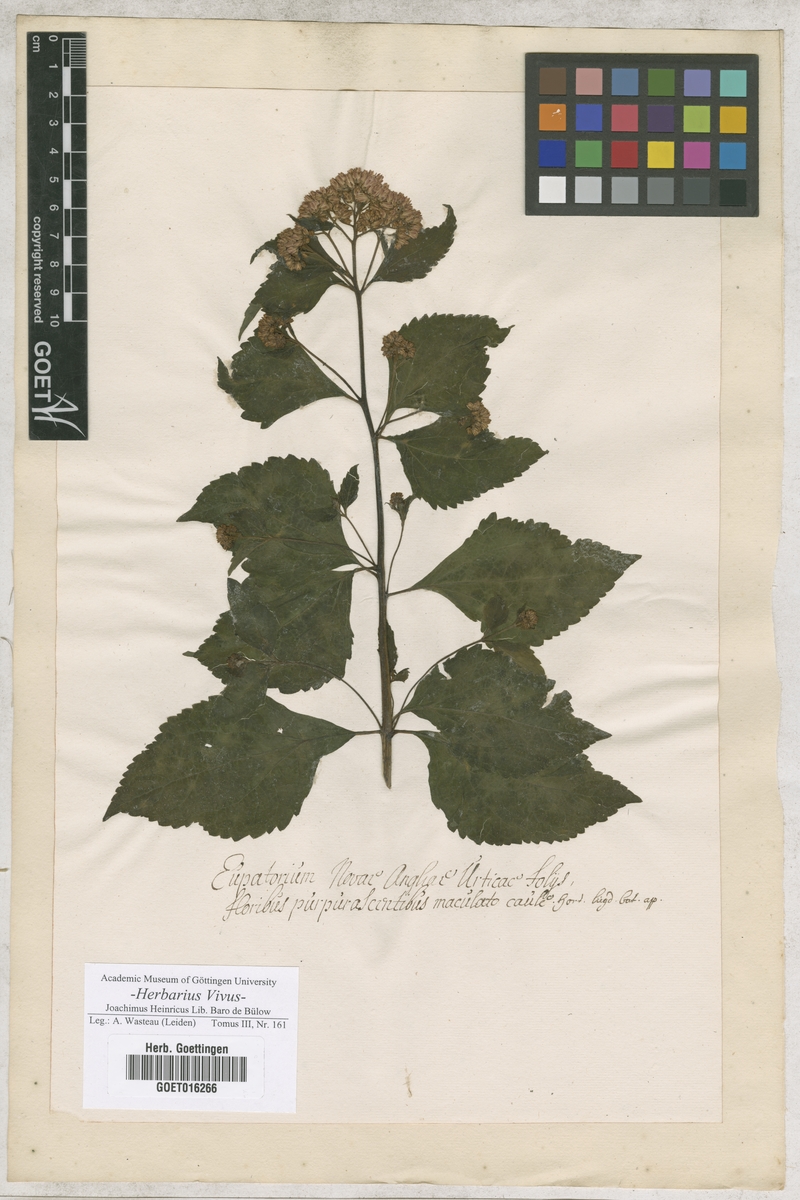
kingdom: Plantae
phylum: Tracheophyta
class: Magnoliopsida
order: Asterales
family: Asteraceae
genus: Eutrochium
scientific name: Eutrochium purpureum
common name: Gravelroot
